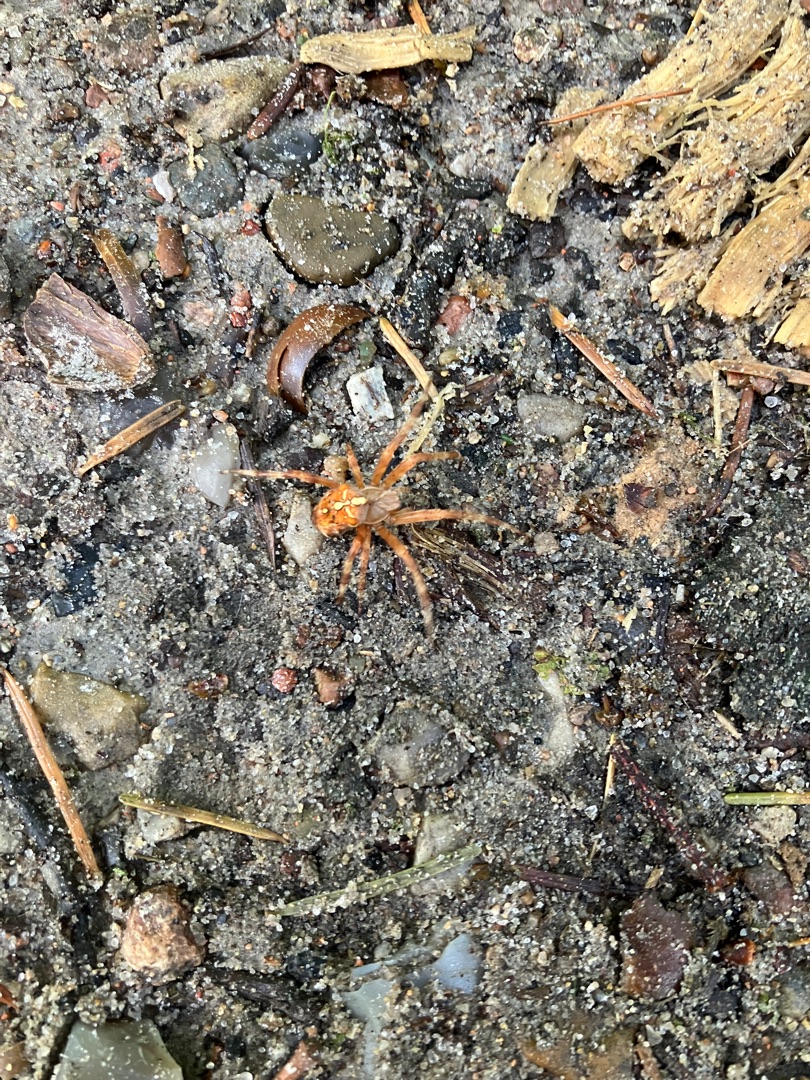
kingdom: Animalia
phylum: Arthropoda
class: Arachnida
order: Araneae
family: Araneidae
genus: Araneus
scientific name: Araneus diadematus
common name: Korsedderkop
